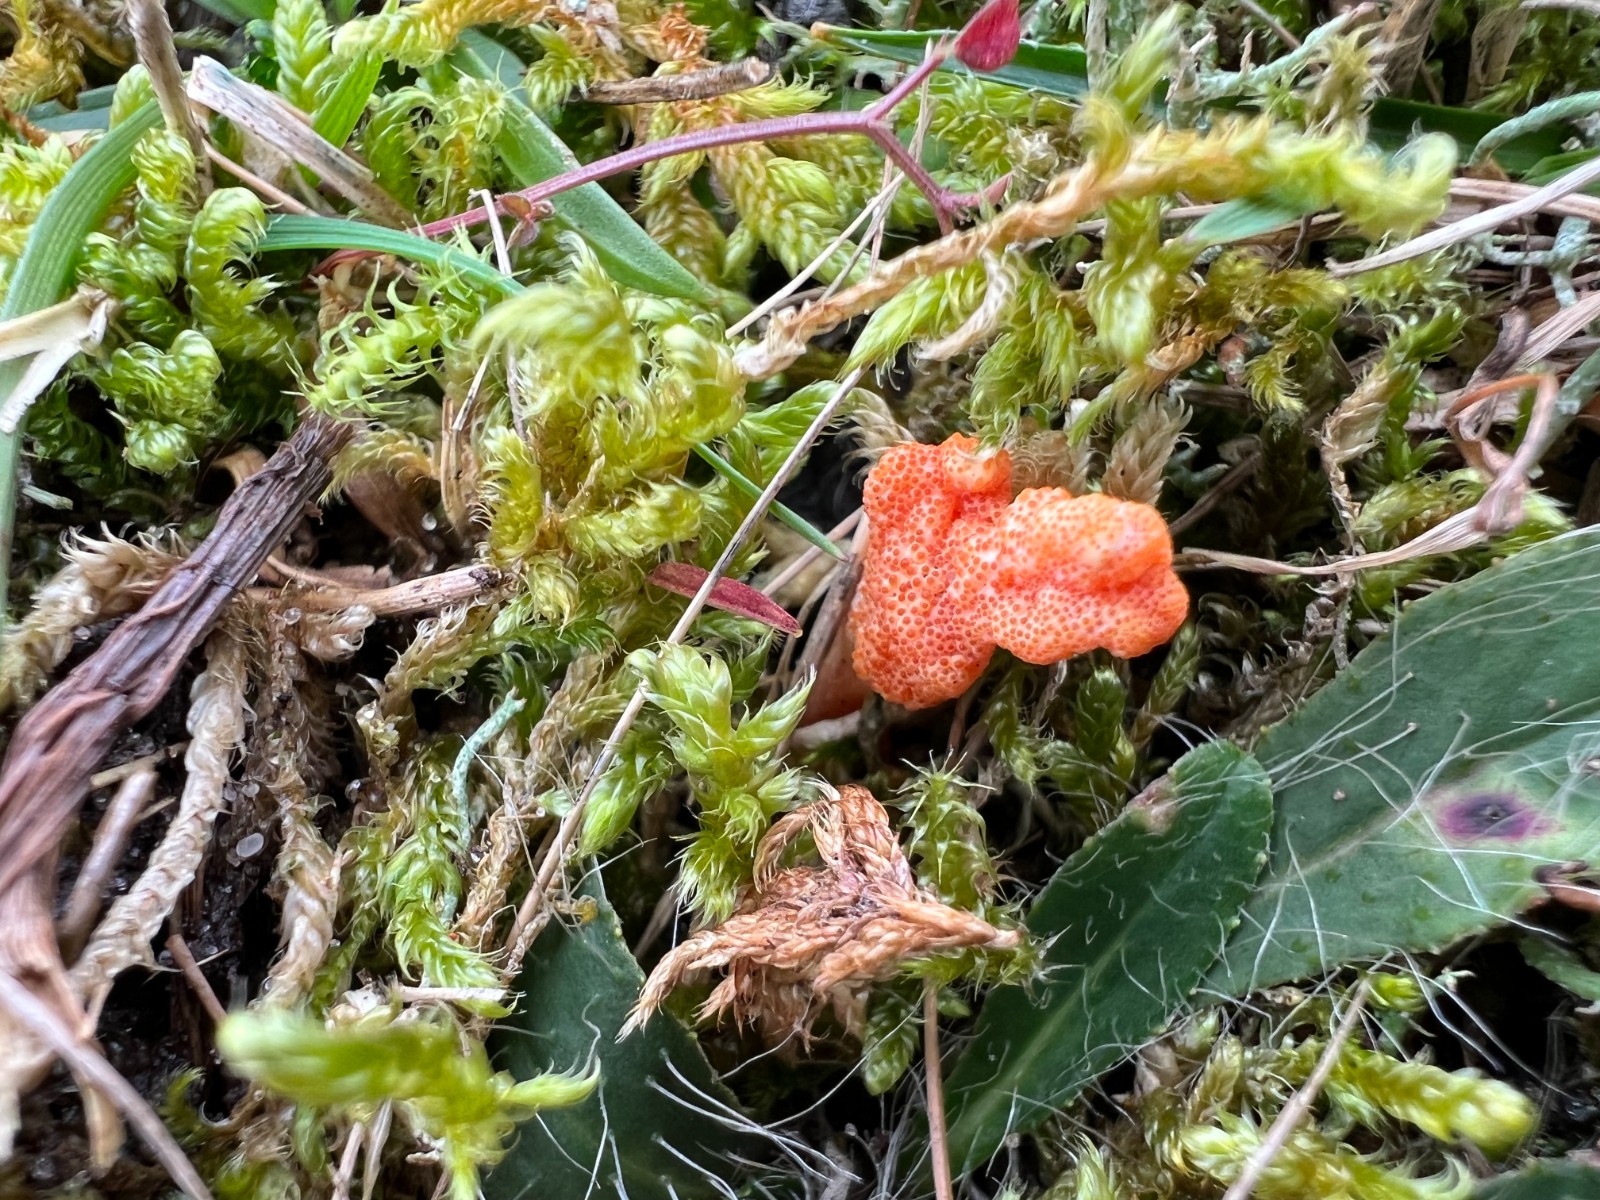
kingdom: Fungi
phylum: Ascomycota
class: Sordariomycetes
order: Hypocreales
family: Cordycipitaceae
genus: Cordyceps
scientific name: Cordyceps militaris
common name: puppe-snyltekølle
